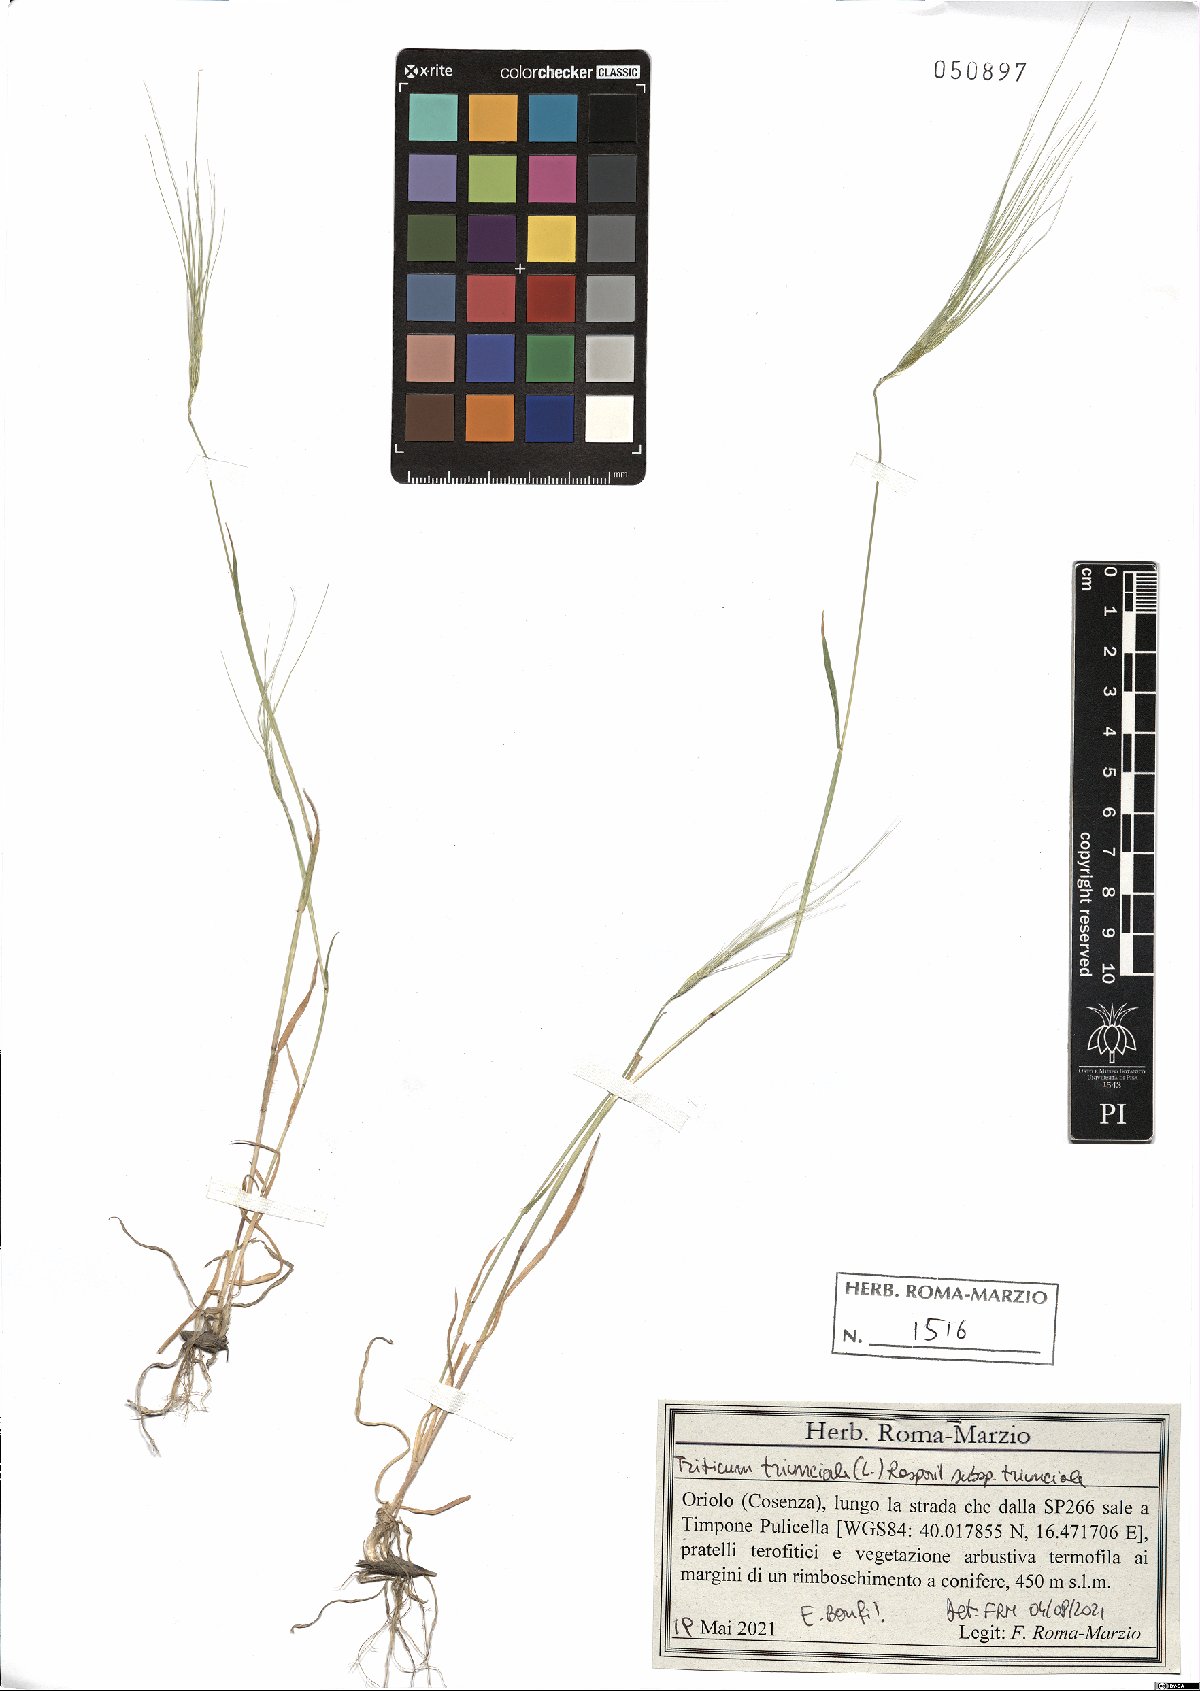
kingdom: Plantae
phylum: Tracheophyta
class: Liliopsida
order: Poales
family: Poaceae
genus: Aegilops
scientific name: Aegilops triuncialis
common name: Barb goat grass
